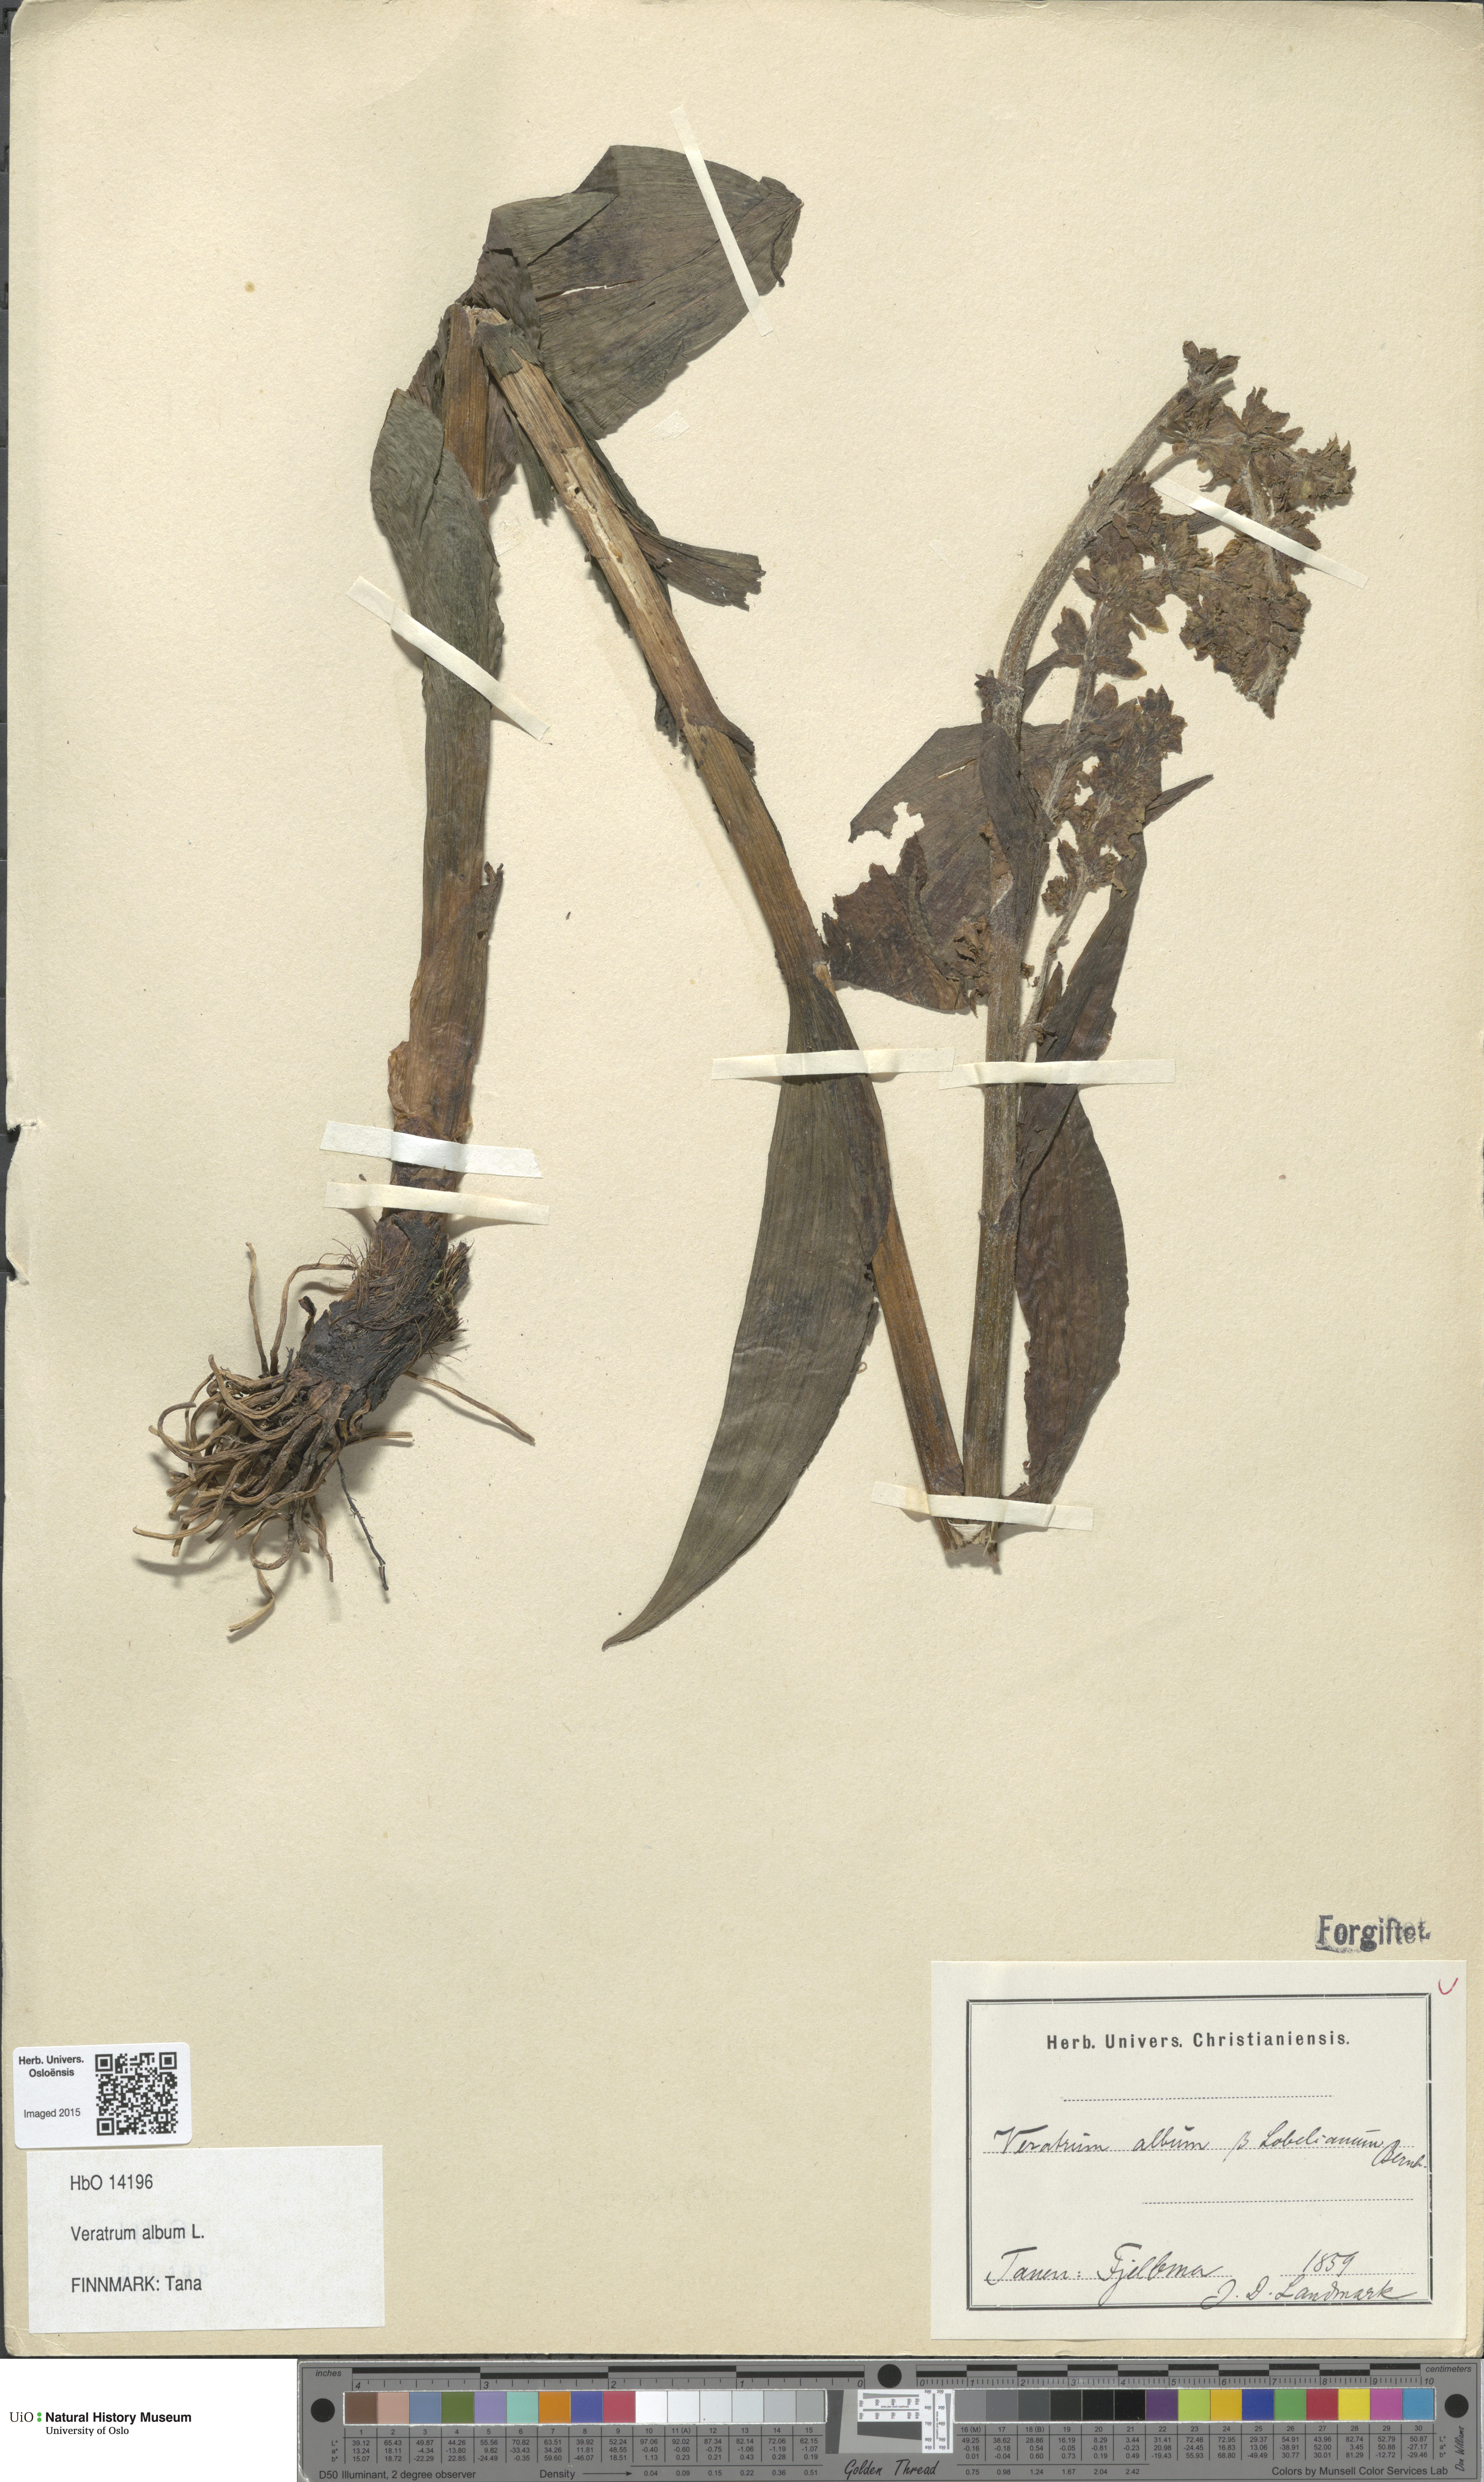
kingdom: Plantae
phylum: Tracheophyta
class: Liliopsida
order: Liliales
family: Melanthiaceae
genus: Veratrum
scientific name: Veratrum album
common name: White veratrum
